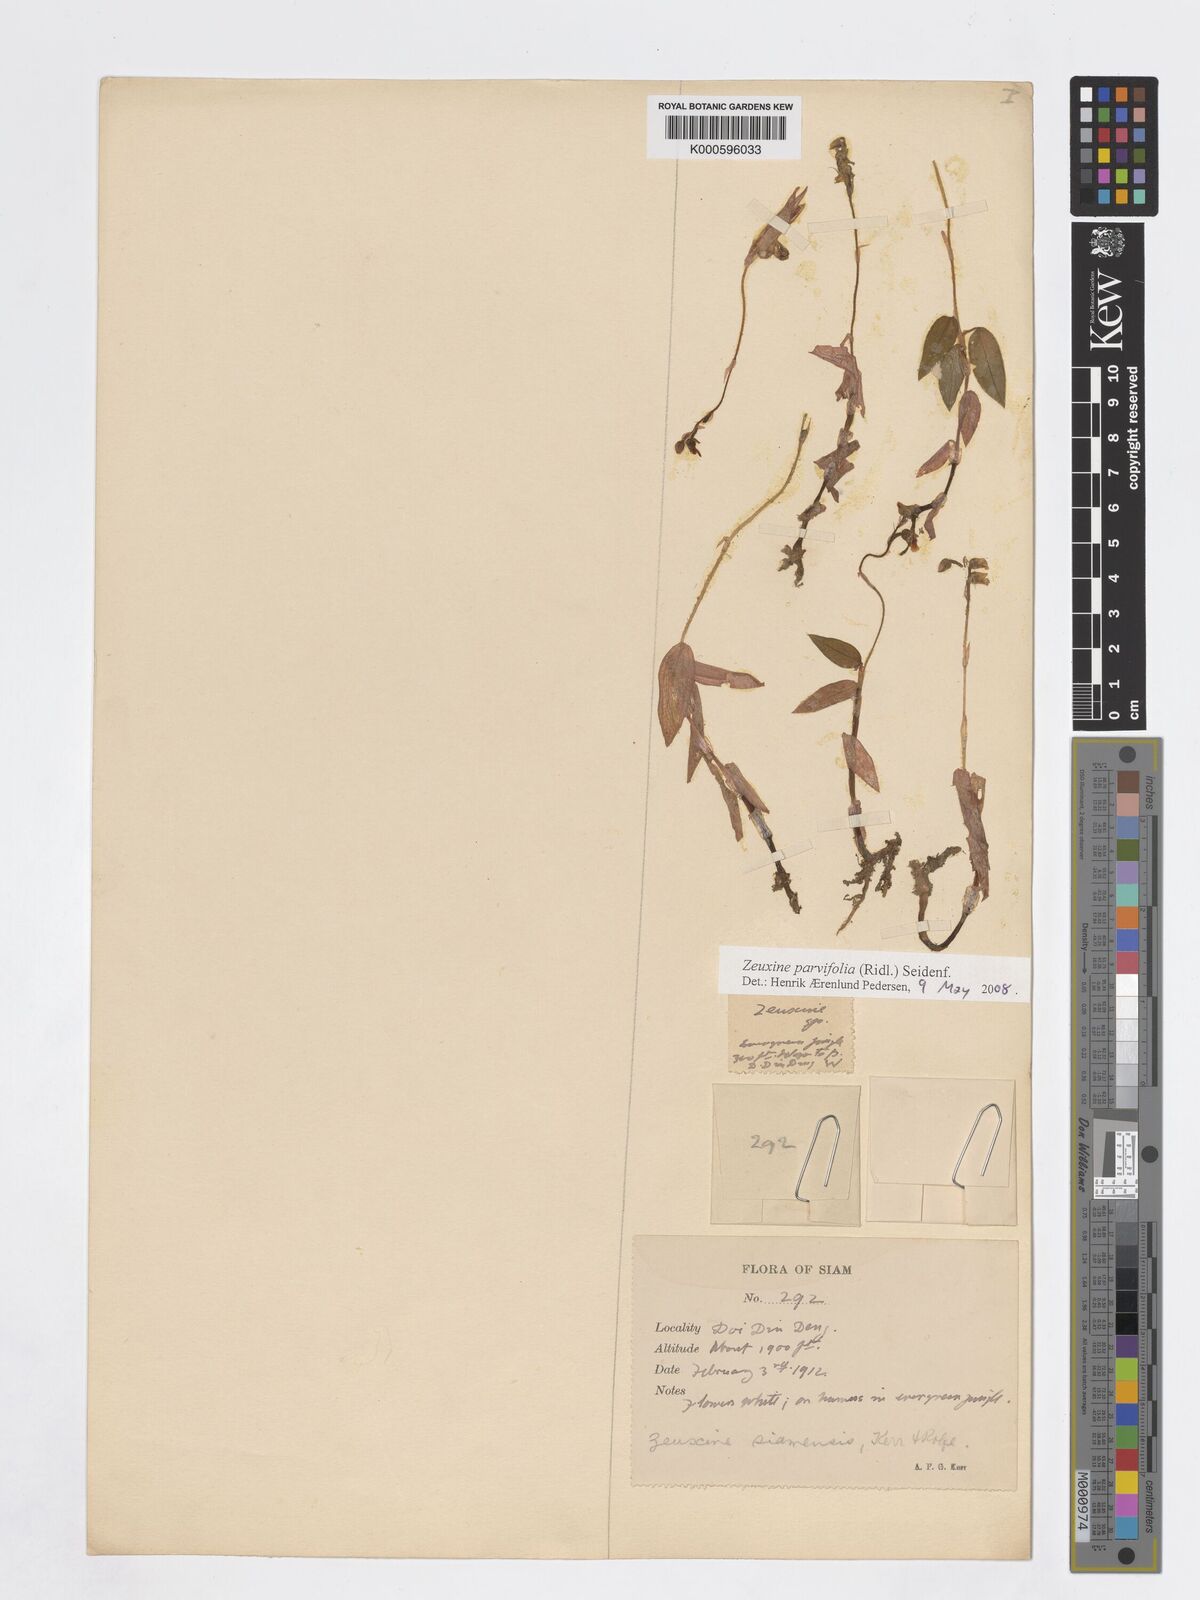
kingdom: Plantae
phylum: Tracheophyta
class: Liliopsida
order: Asparagales
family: Orchidaceae
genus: Zeuxine
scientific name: Zeuxine parvifolia
